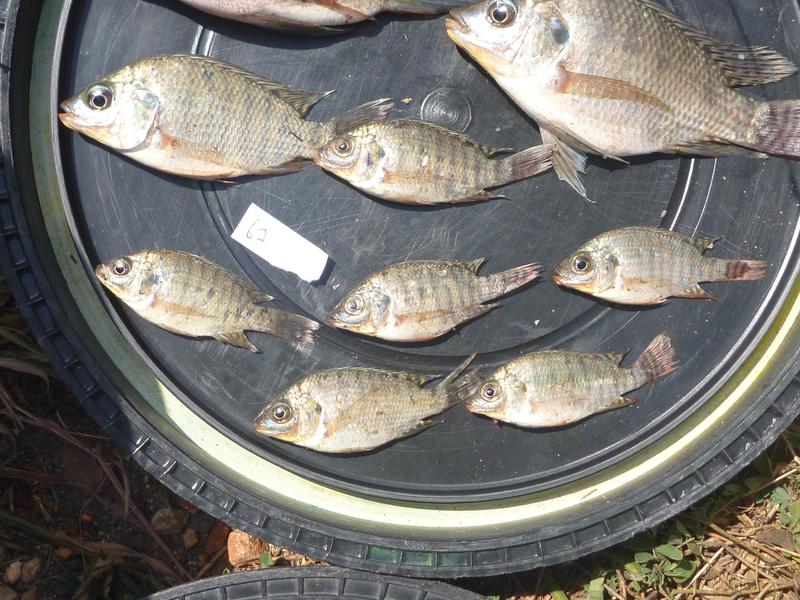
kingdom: Animalia
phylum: Chordata
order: Perciformes
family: Cichlidae
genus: Oreochromis
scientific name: Oreochromis niloticus
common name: Nile tilapia
